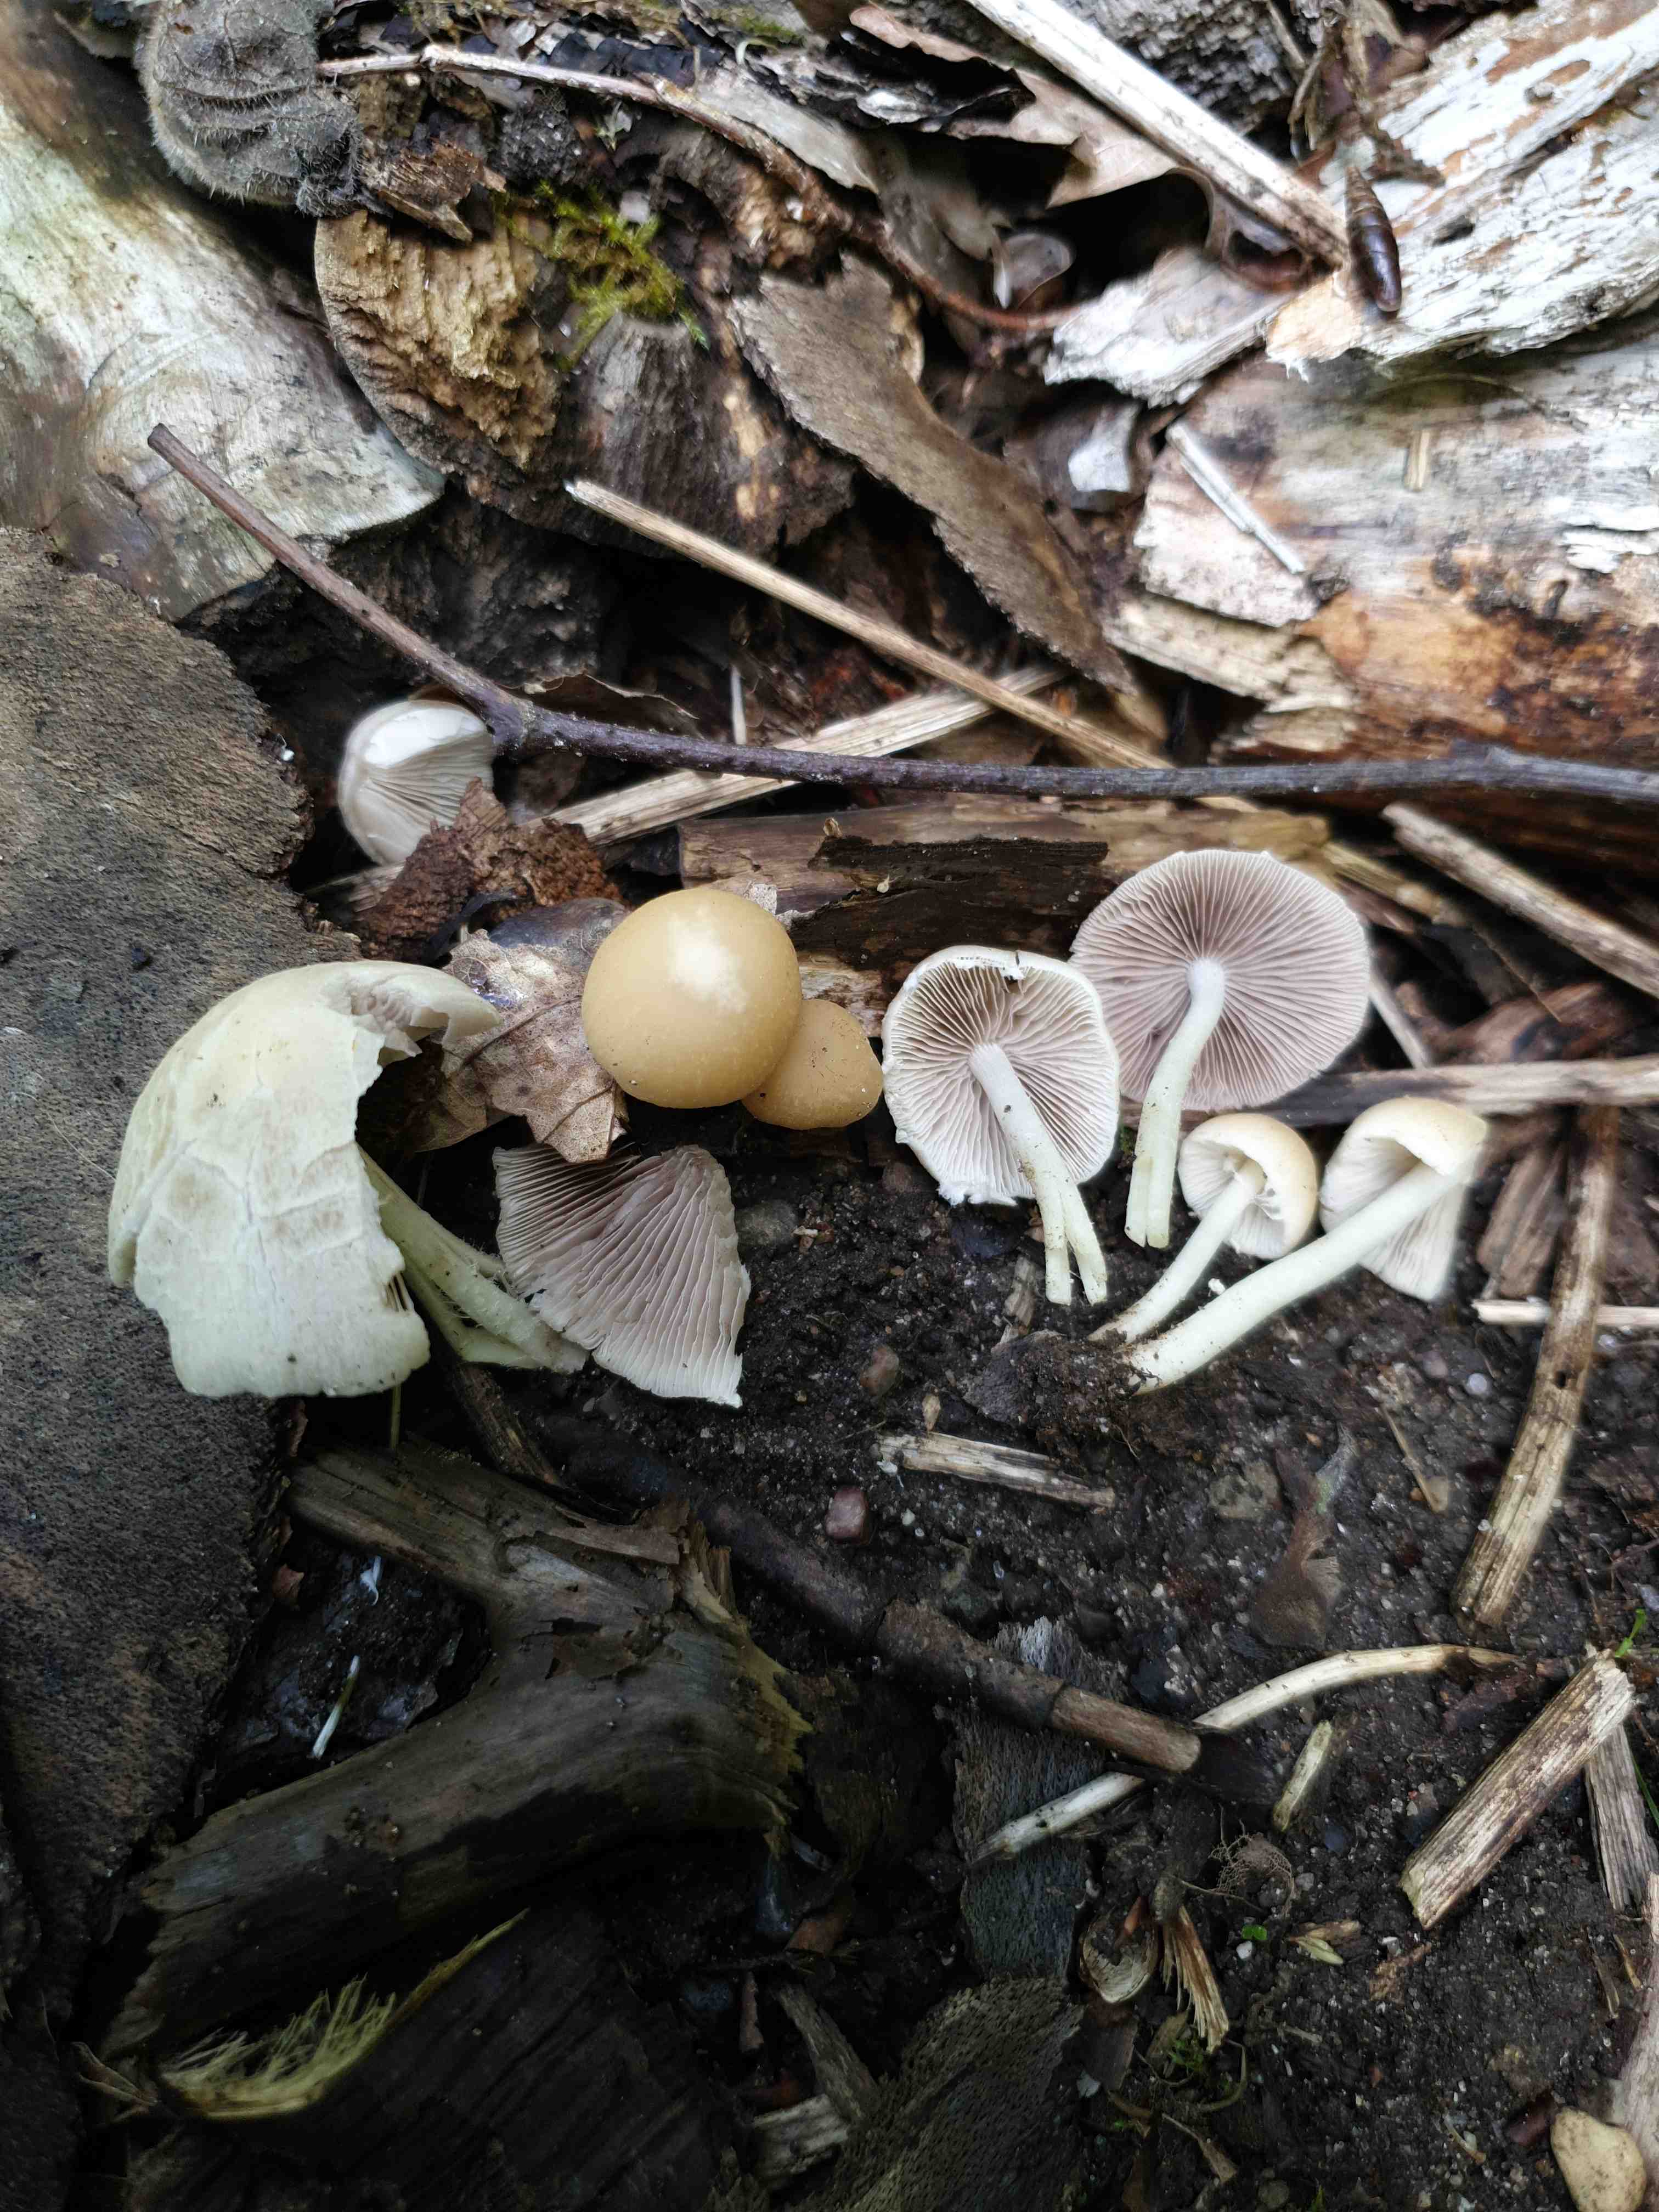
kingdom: Fungi
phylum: Basidiomycota
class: Agaricomycetes
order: Agaricales
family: Psathyrellaceae
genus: Candolleomyces
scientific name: Candolleomyces candolleanus
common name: Candolles mørkhat
